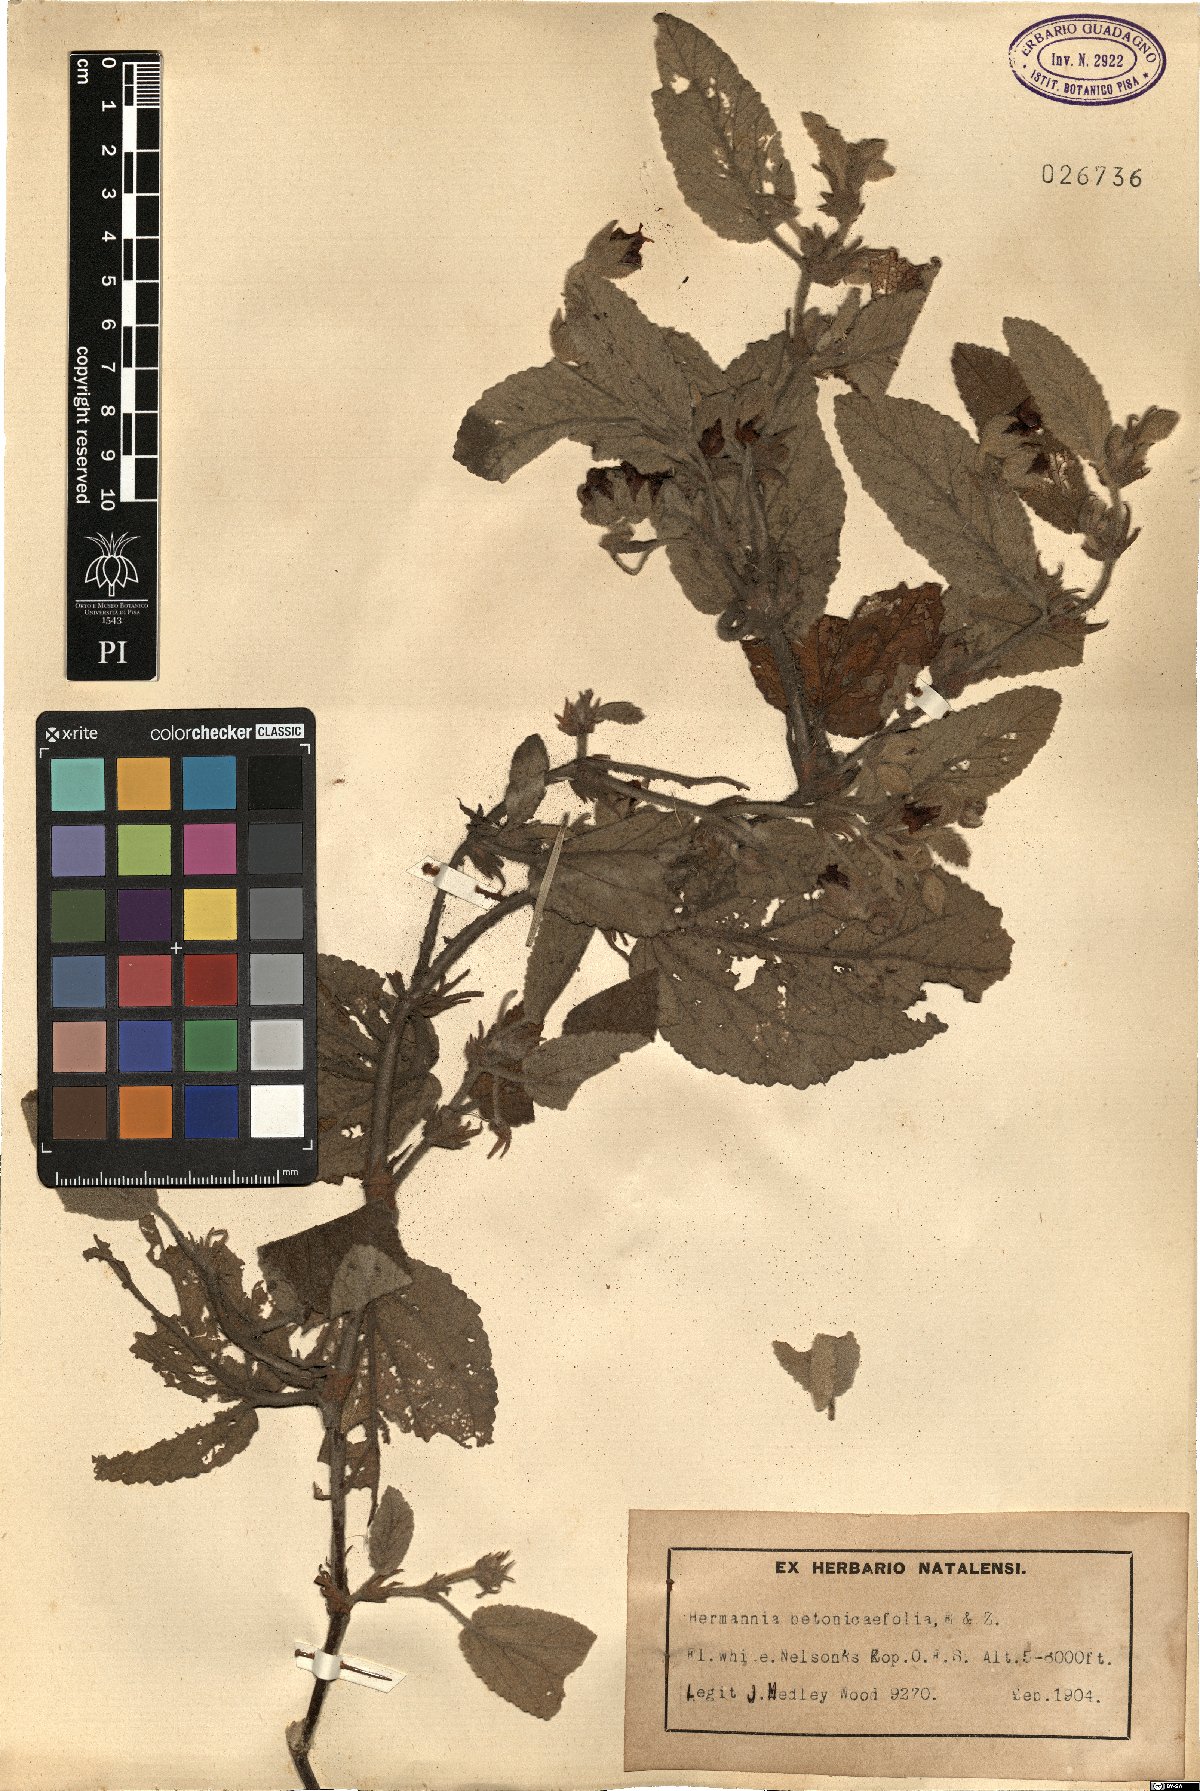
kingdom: Plantae
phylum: Tracheophyta
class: Magnoliopsida
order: Malvales
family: Malvaceae
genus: Hermannia
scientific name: Hermannia geniculata
